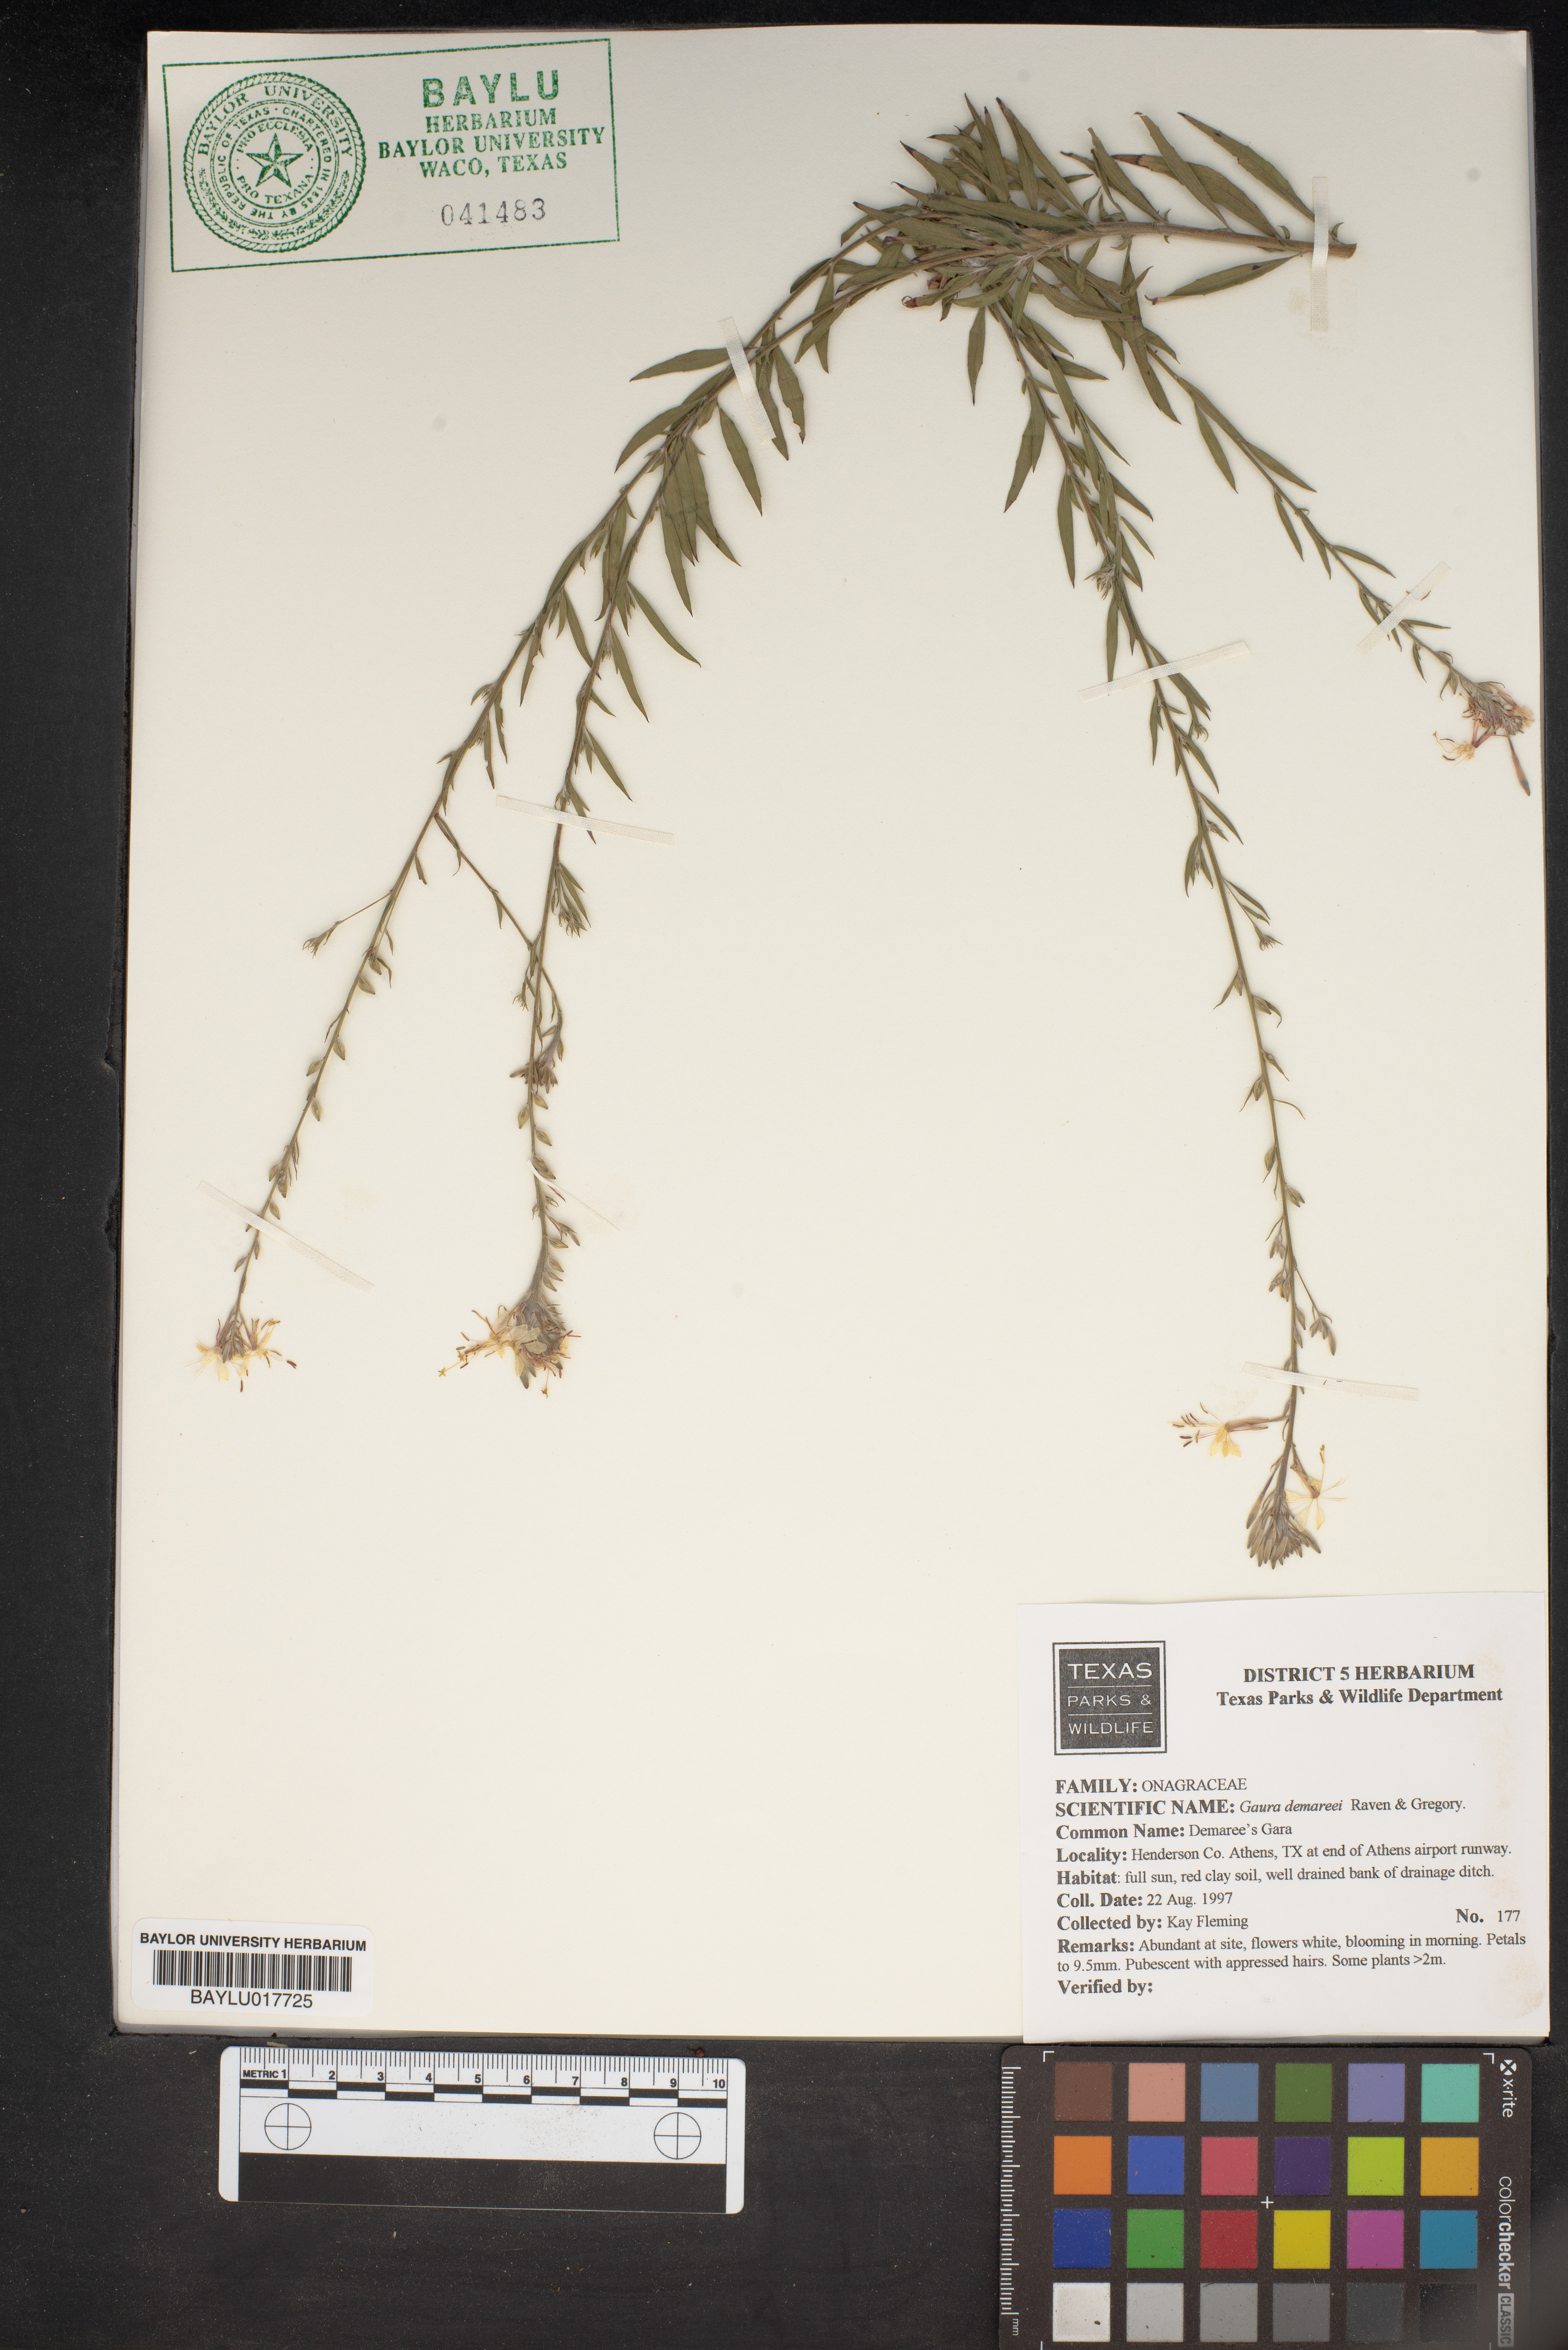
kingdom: Plantae
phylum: Tracheophyta
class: Magnoliopsida
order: Myrtales
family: Onagraceae
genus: Oenothera
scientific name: Oenothera demareei
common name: Demaree's beeblossom
